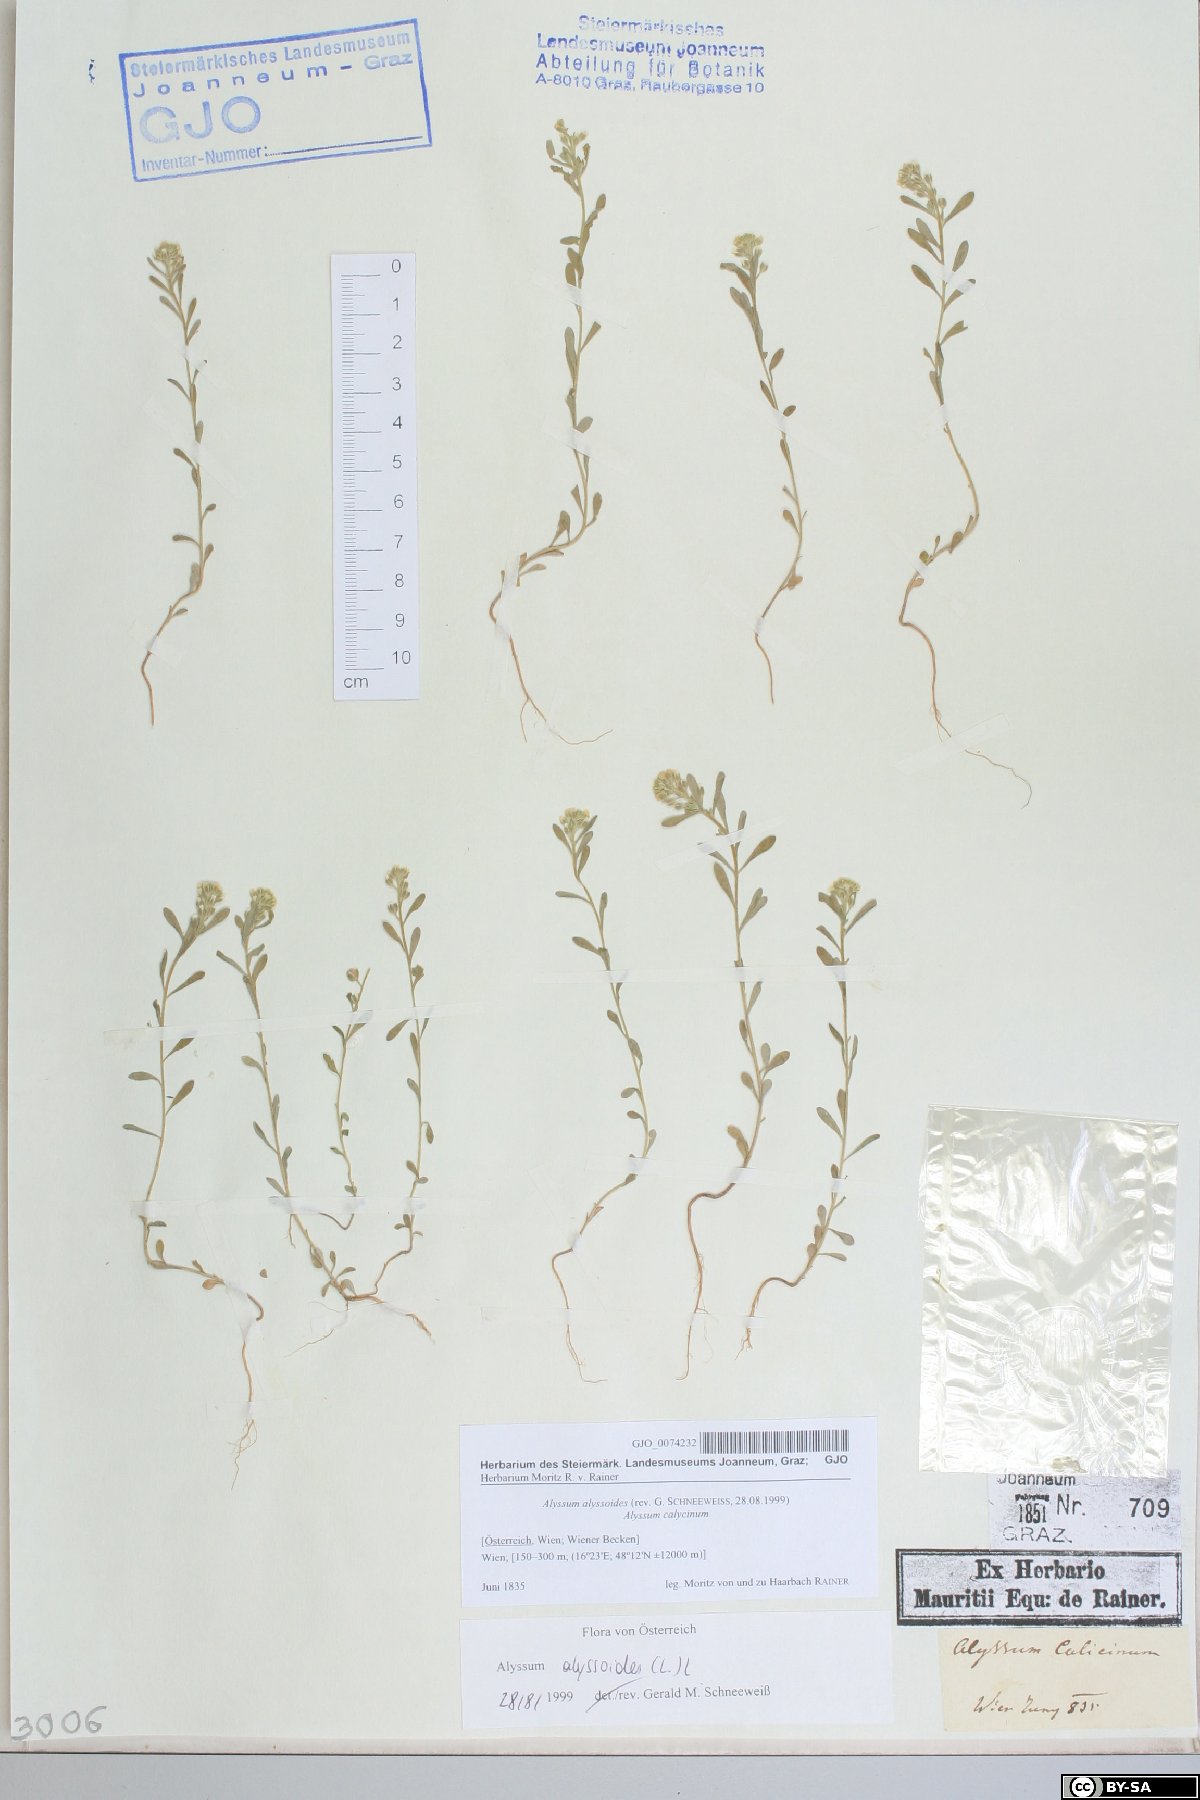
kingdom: Plantae
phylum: Tracheophyta
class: Magnoliopsida
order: Brassicales
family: Brassicaceae
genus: Alyssum
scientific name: Alyssum alyssoides
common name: Small alison
